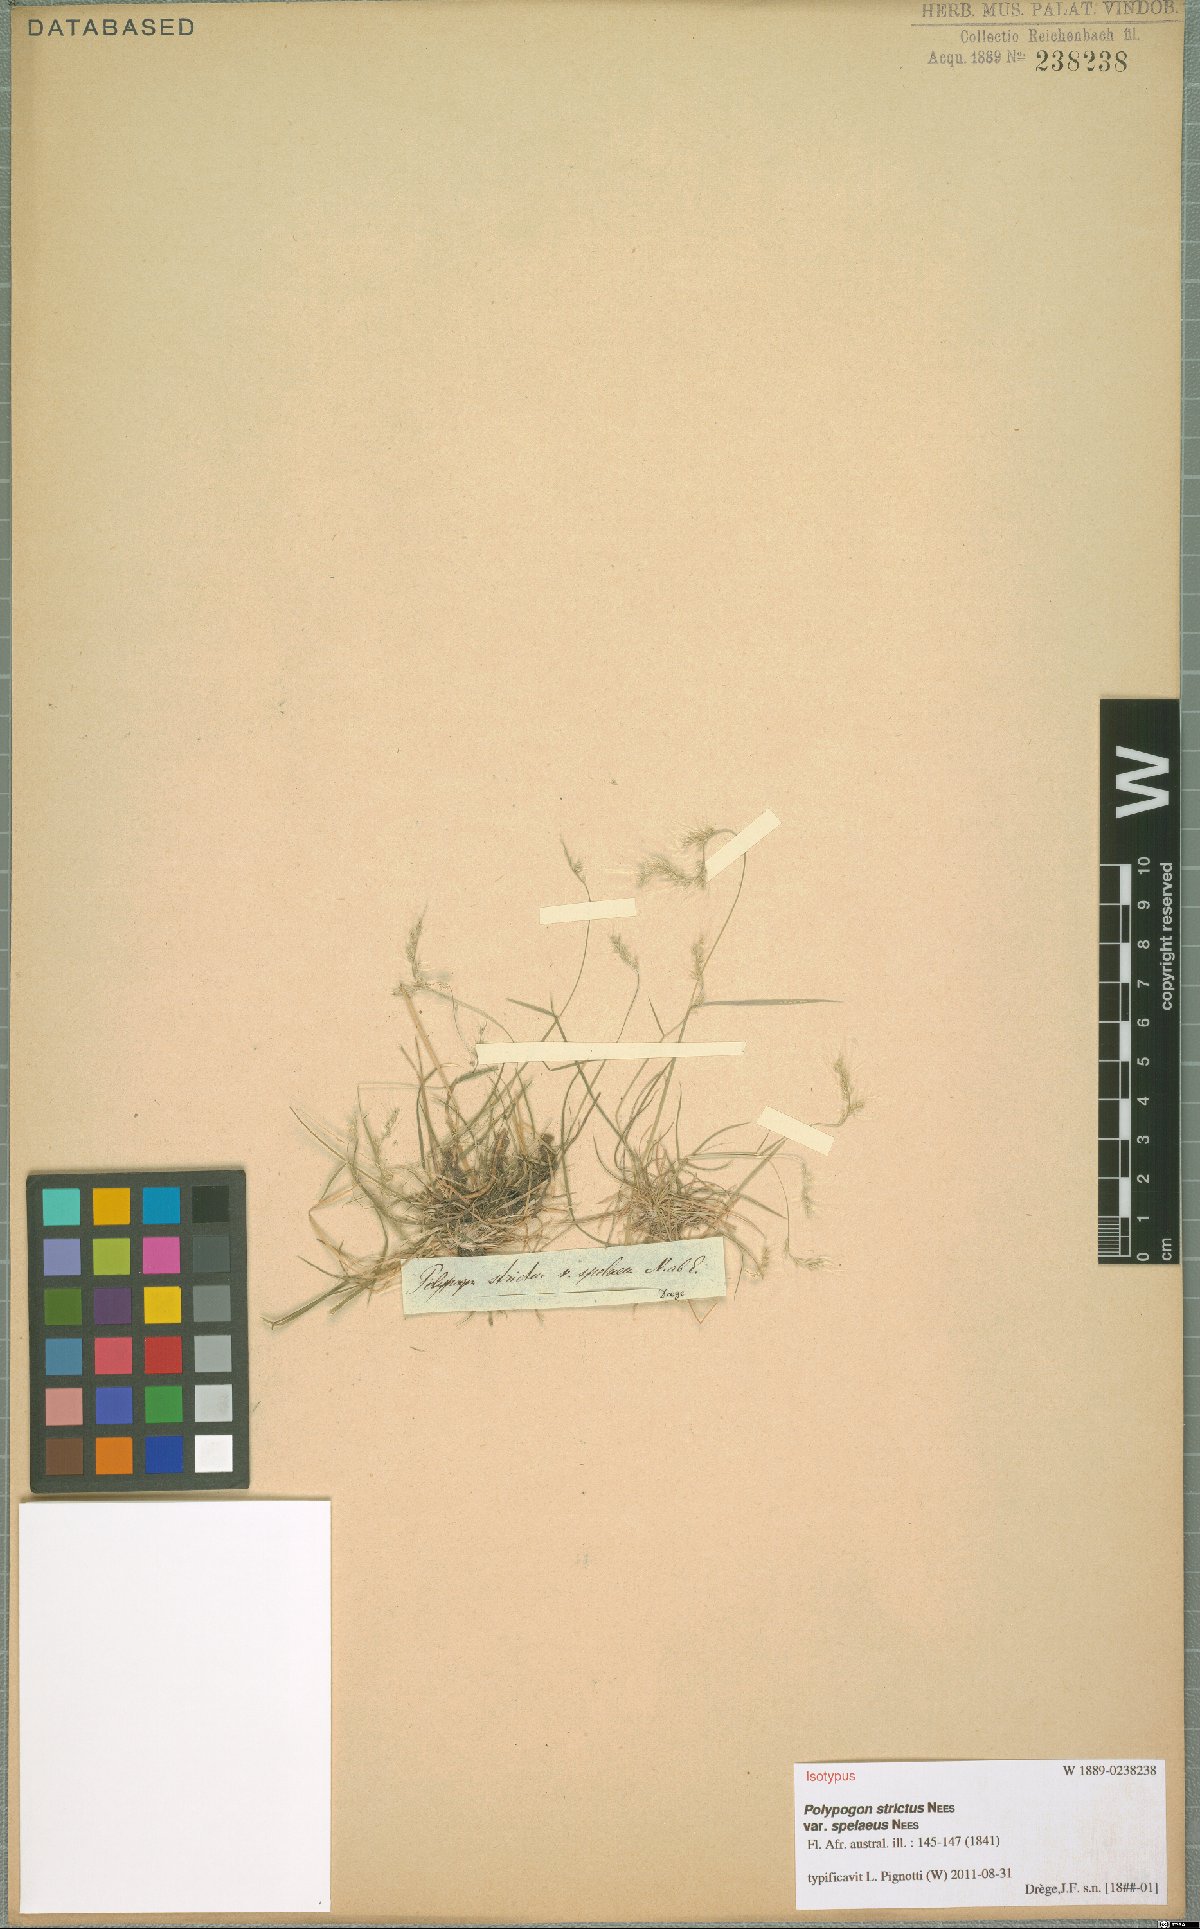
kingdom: Plantae
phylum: Tracheophyta
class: Liliopsida
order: Poales
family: Poaceae
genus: Polypogon
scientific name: Polypogon tenuis
